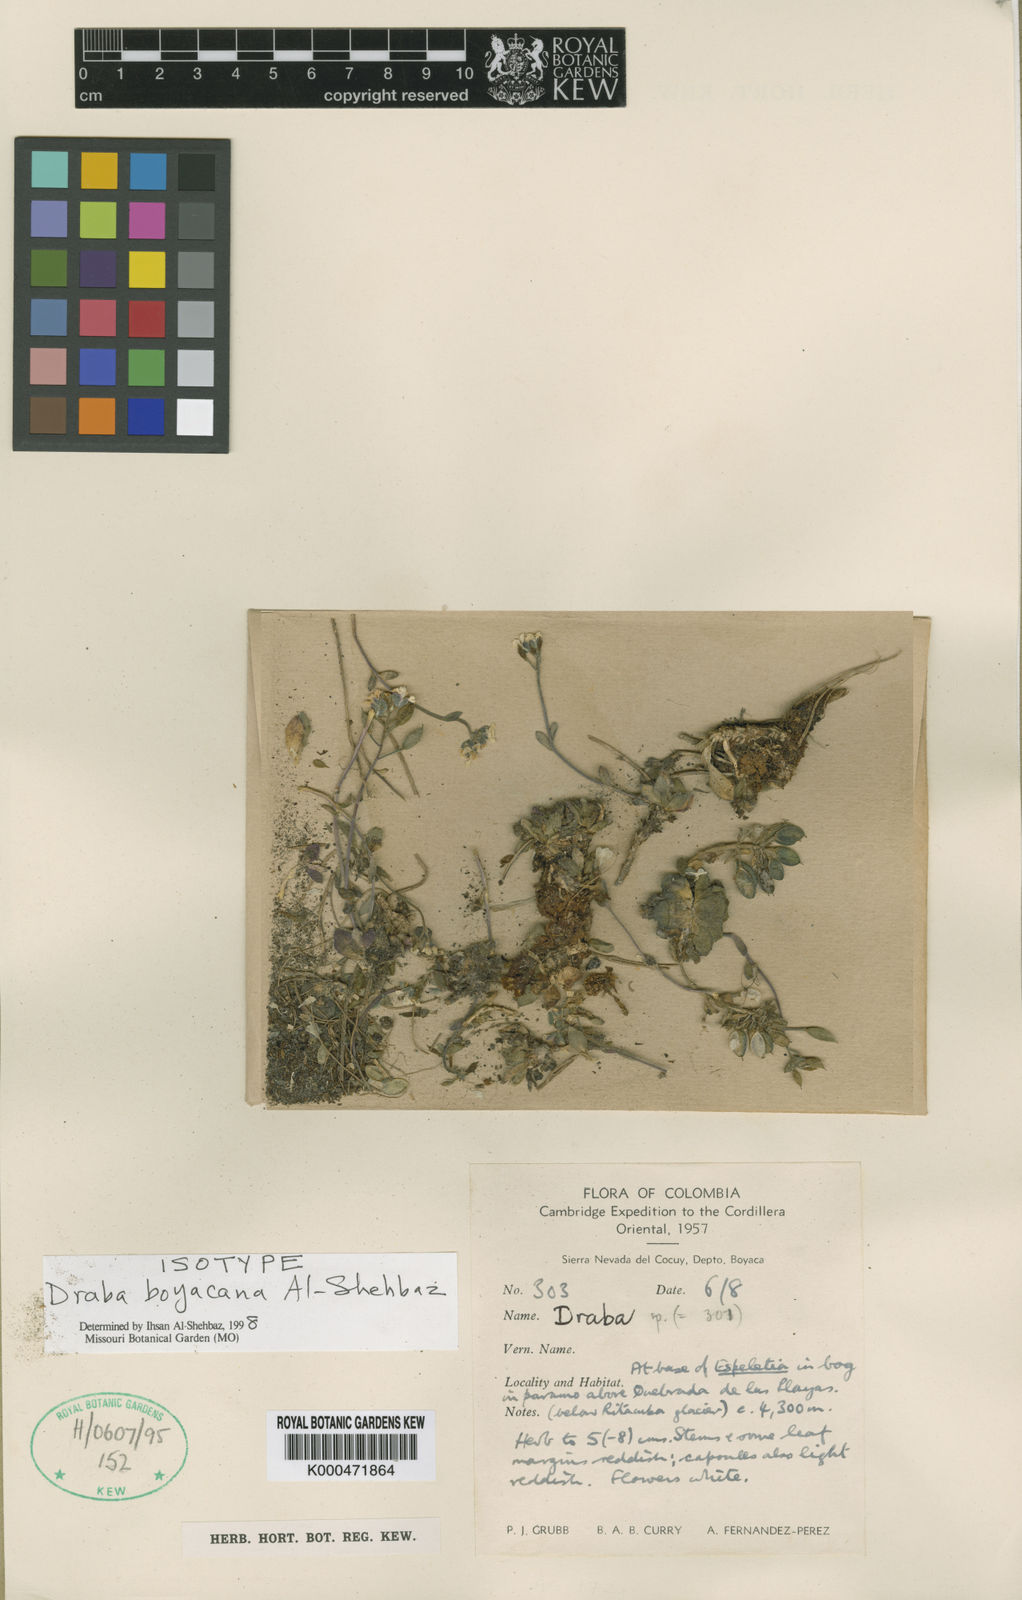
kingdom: Plantae
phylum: Tracheophyta
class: Magnoliopsida
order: Brassicales
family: Brassicaceae
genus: Draba
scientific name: Draba boyacana
